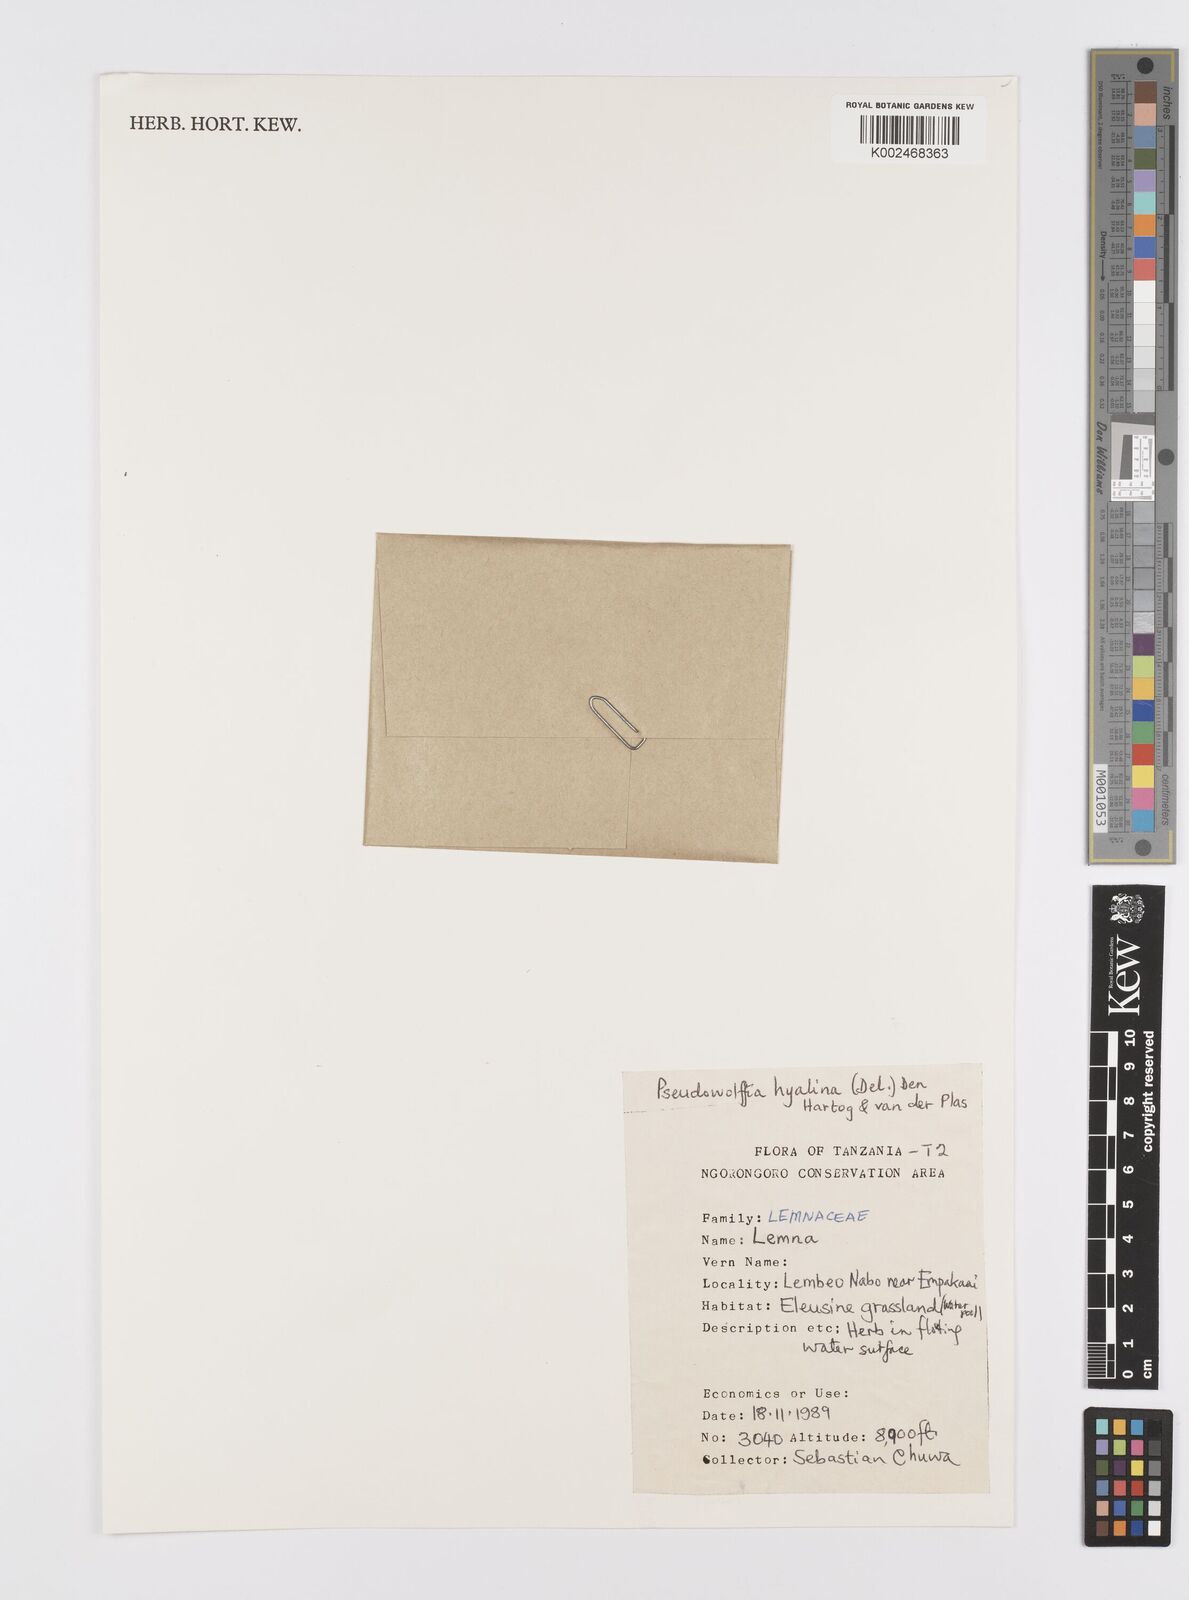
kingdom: Plantae
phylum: Tracheophyta
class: Liliopsida
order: Alismatales
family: Araceae
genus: Wolffiella
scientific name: Wolffiella hyalina
